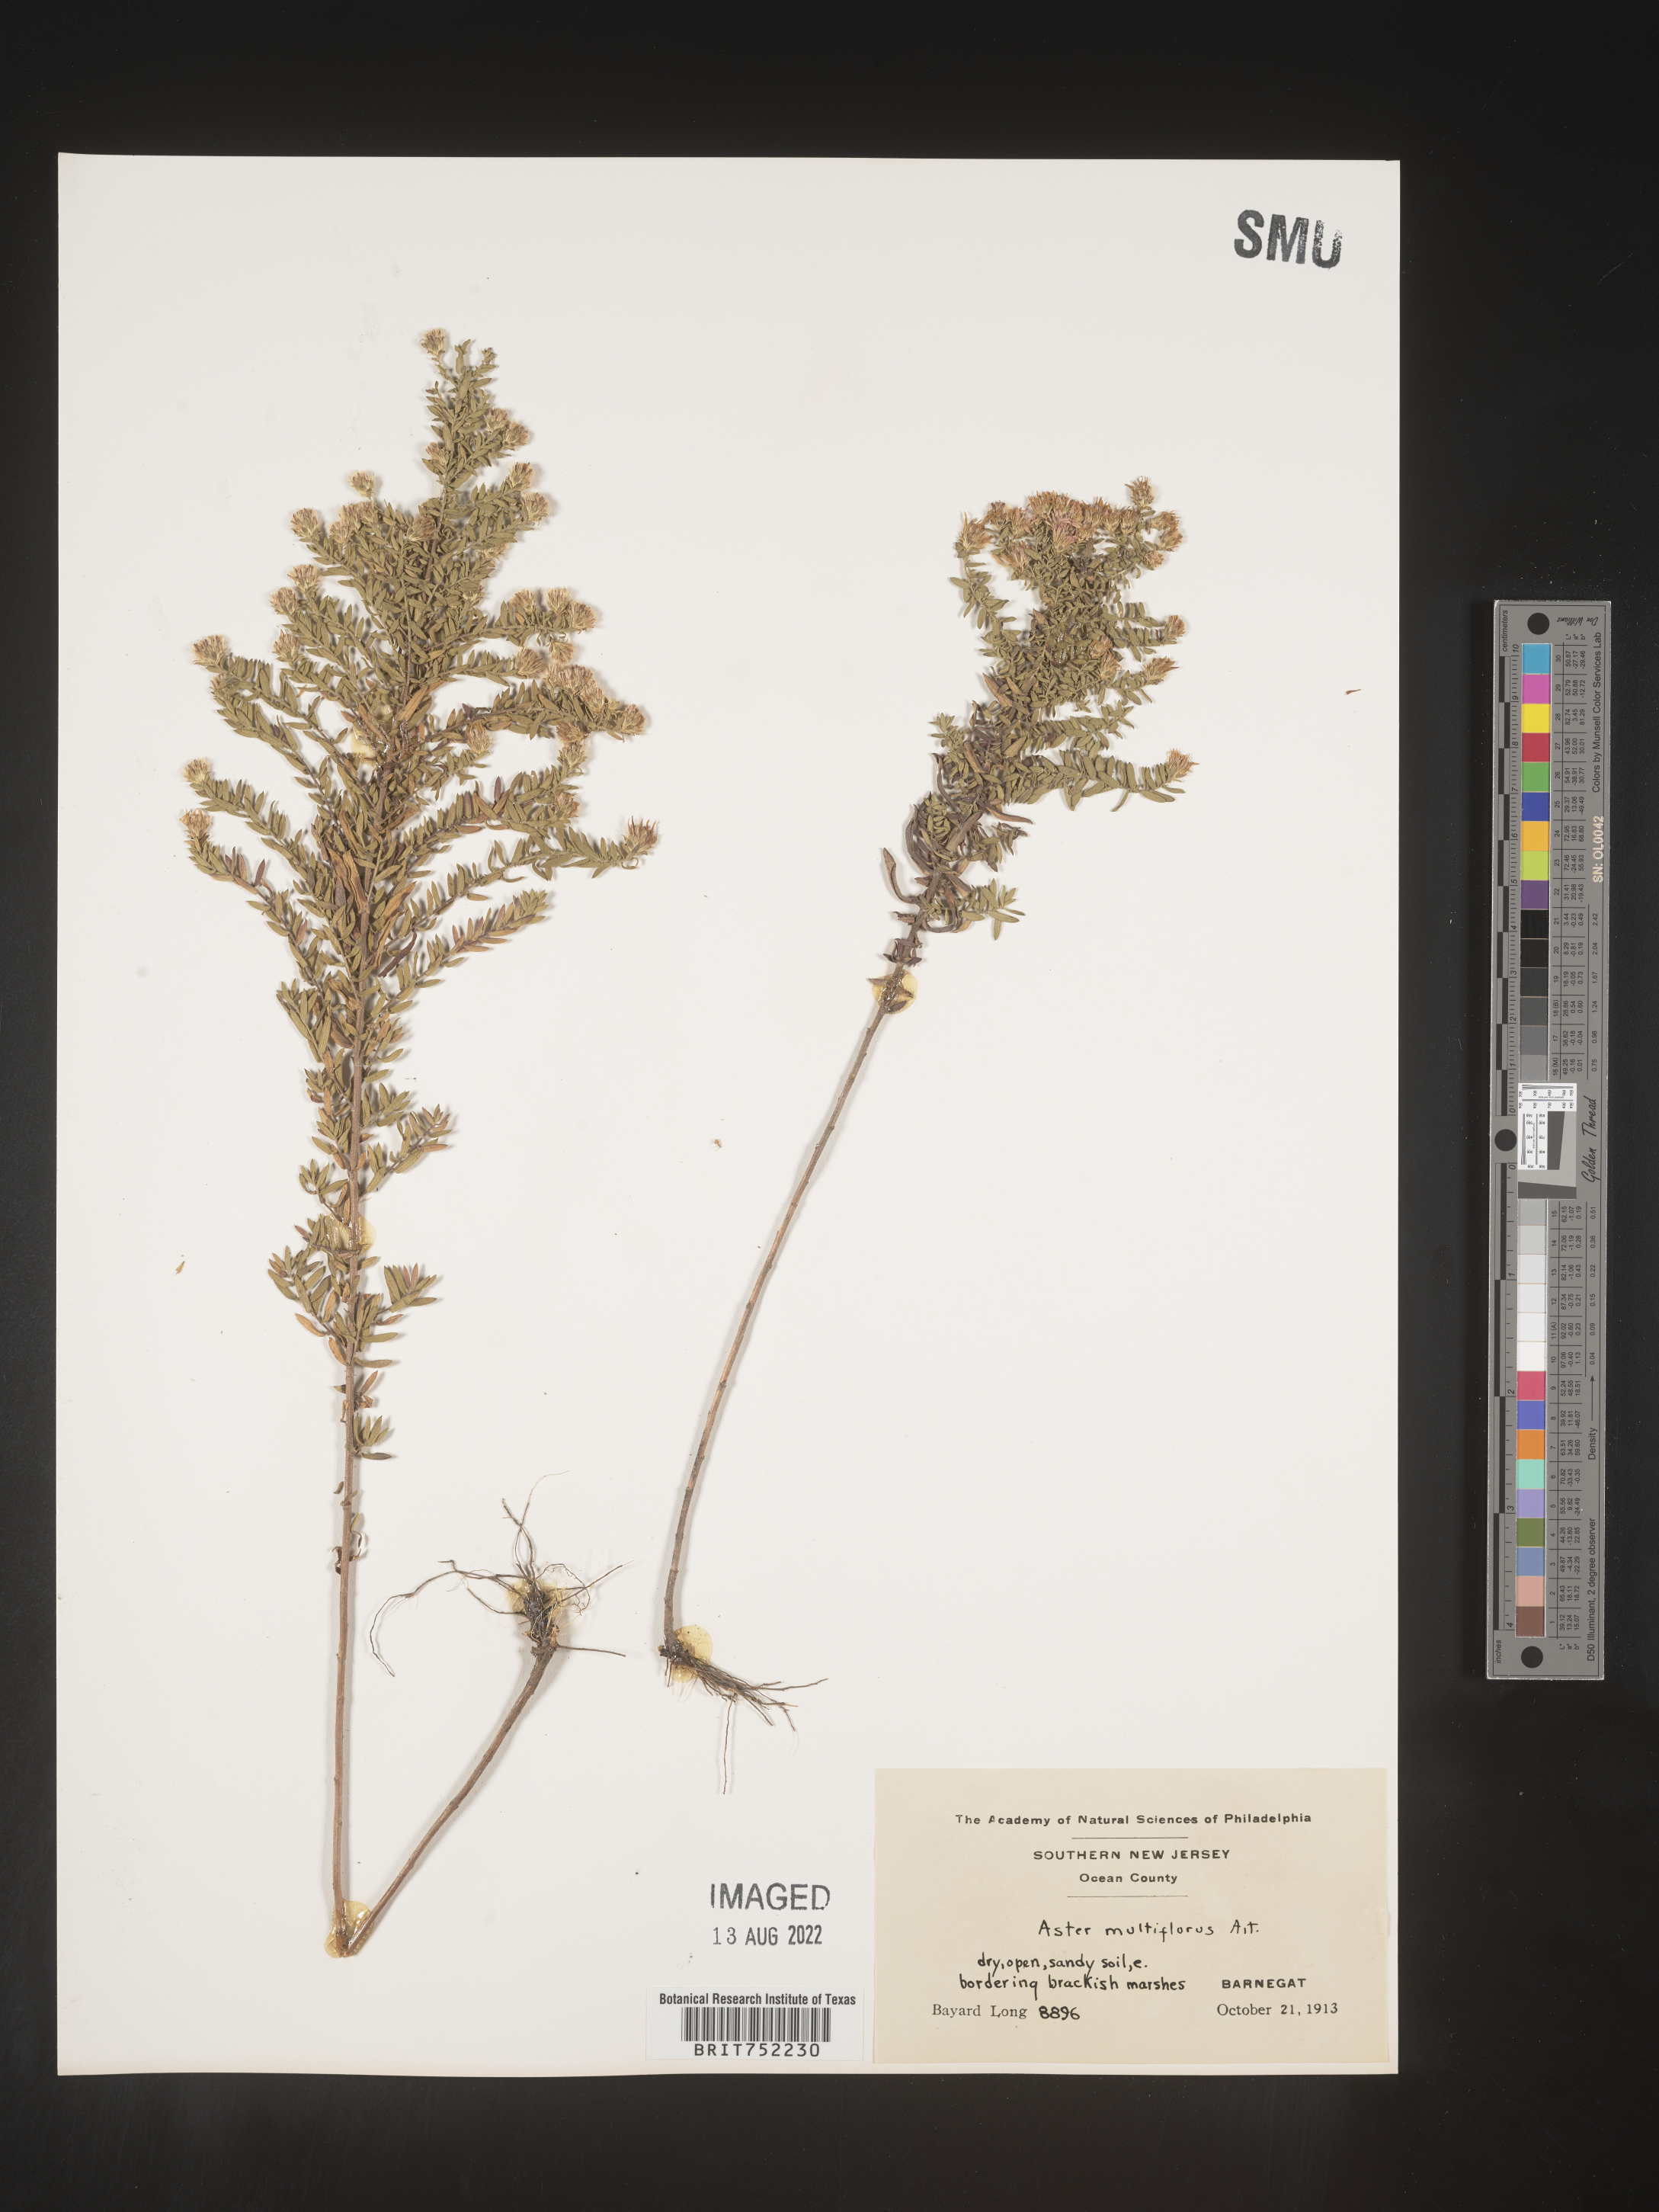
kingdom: Plantae
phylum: Tracheophyta
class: Magnoliopsida
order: Asterales
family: Asteraceae
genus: Symphyotrichum
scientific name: Symphyotrichum ericoides
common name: Heath aster
